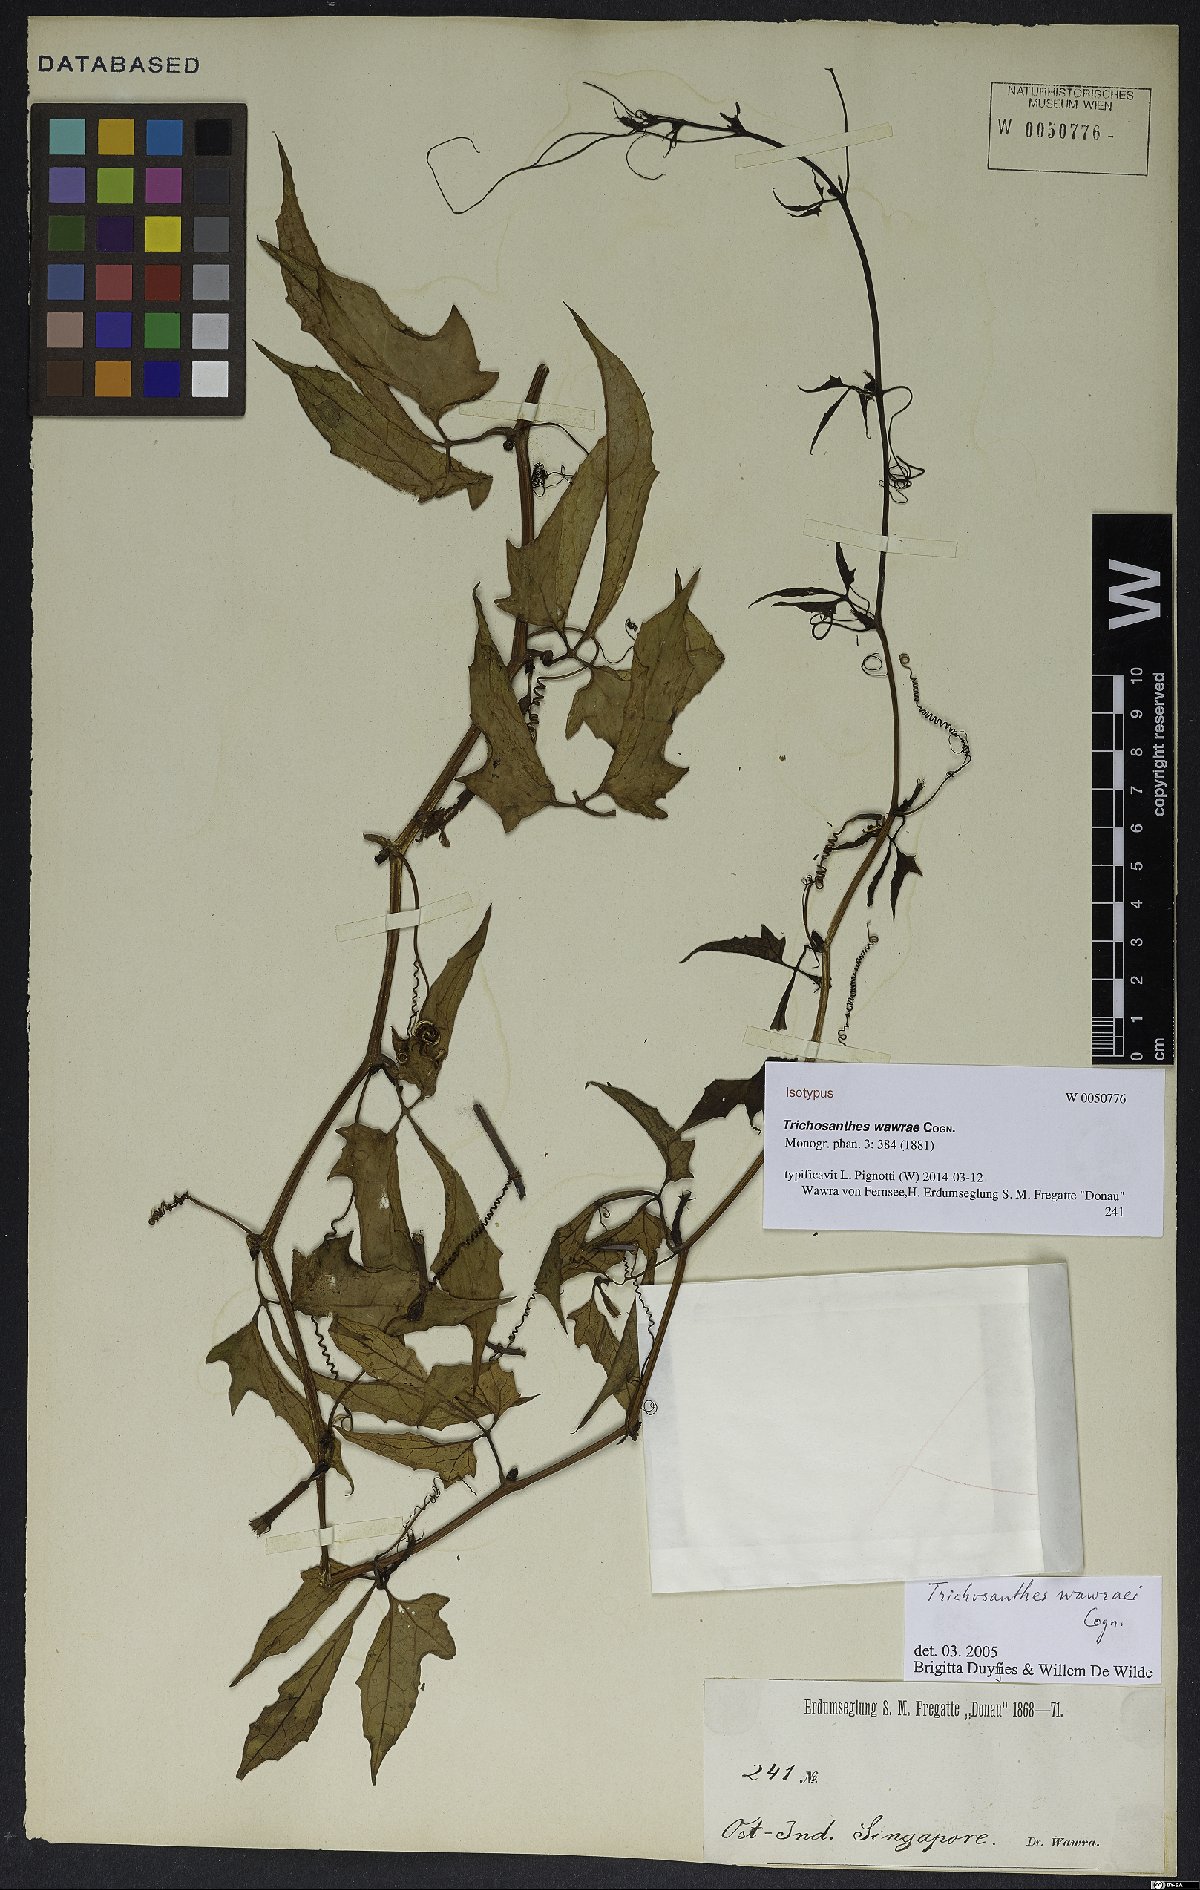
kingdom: Plantae
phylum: Tracheophyta
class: Magnoliopsida
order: Cucurbitales
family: Cucurbitaceae
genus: Trichosanthes
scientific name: Trichosanthes wawrae
